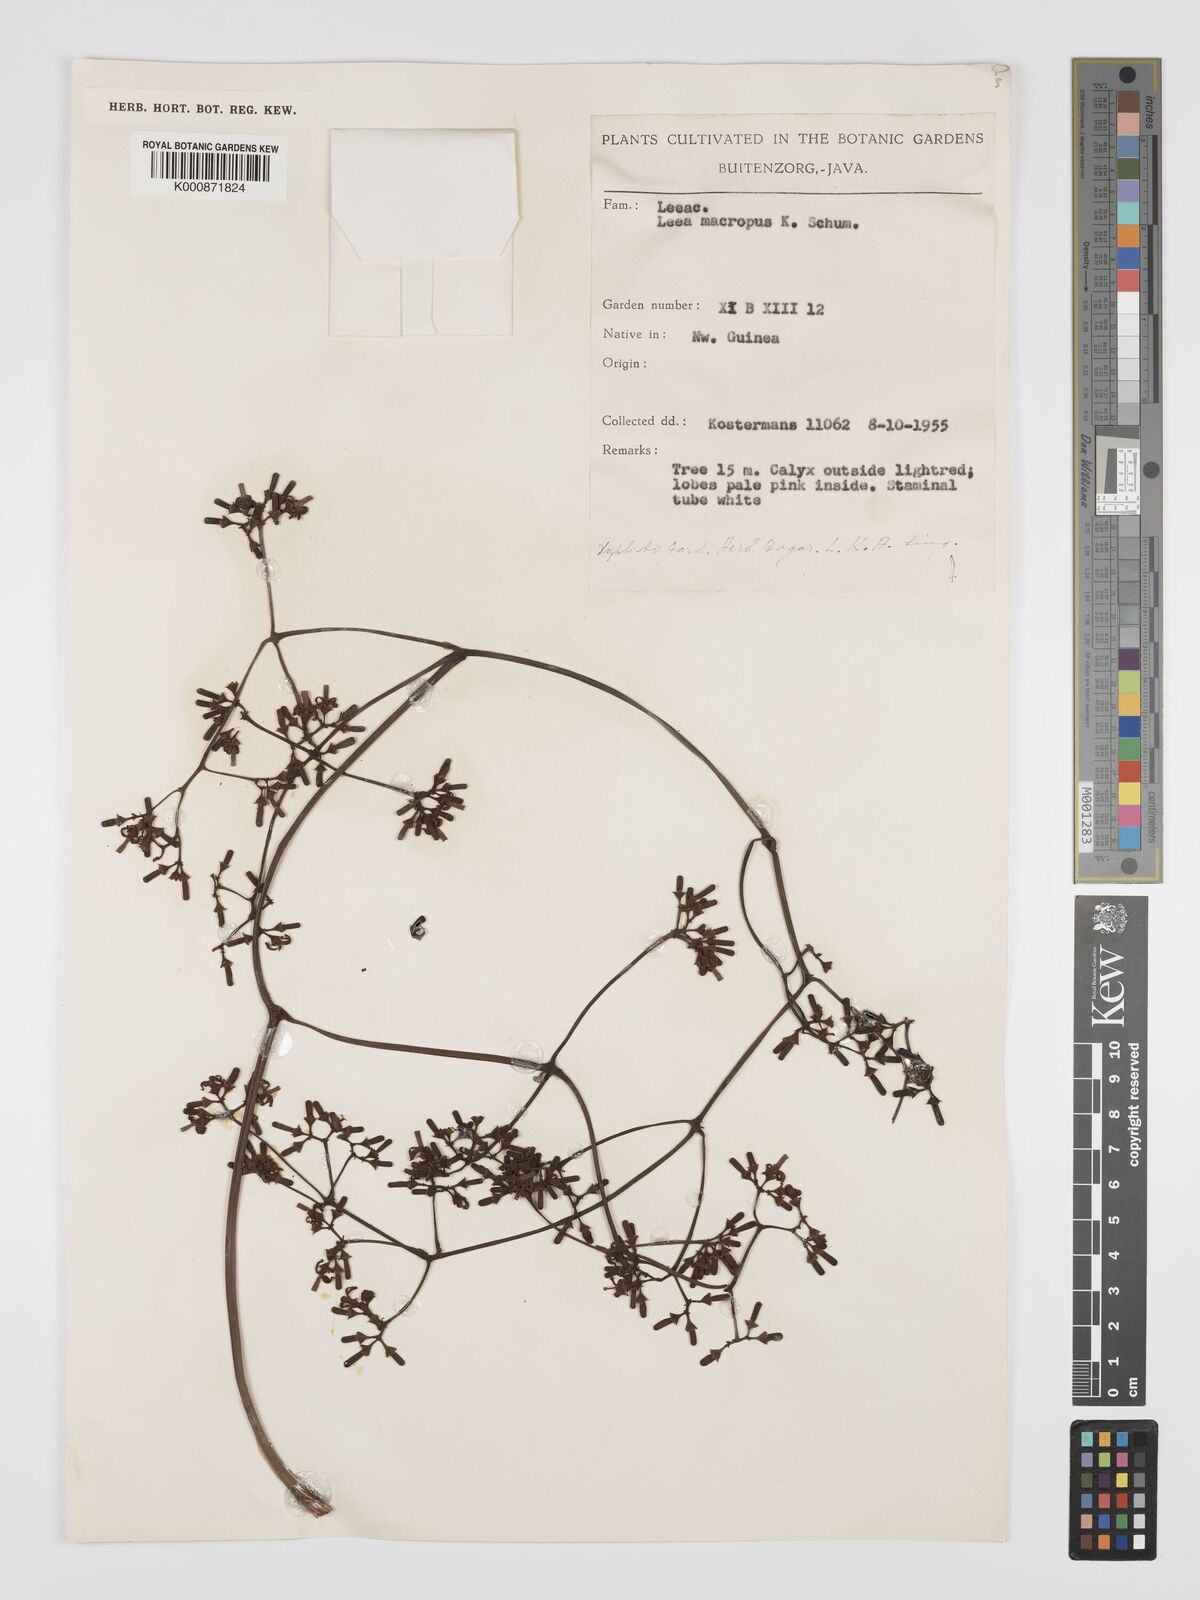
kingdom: Plantae
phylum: Tracheophyta
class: Magnoliopsida
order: Vitales
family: Vitaceae
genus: Leea
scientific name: Leea macropus
